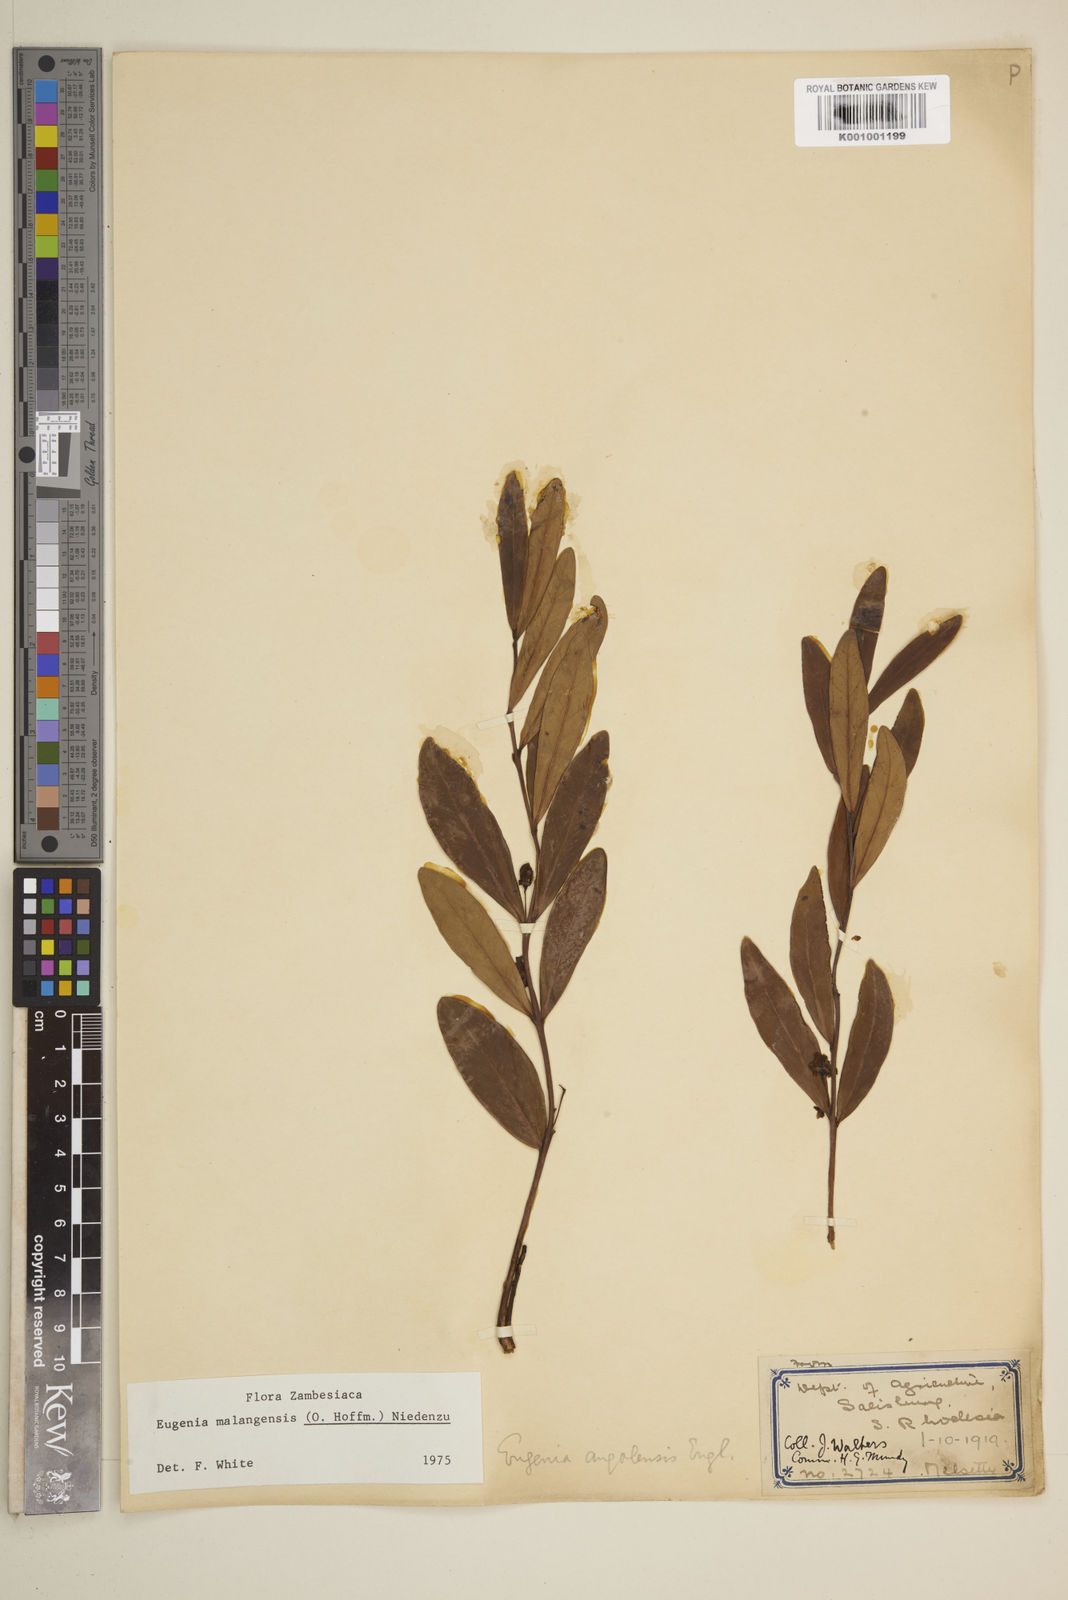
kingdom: Plantae
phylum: Tracheophyta
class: Magnoliopsida
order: Myrtales
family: Myrtaceae
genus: Eugenia
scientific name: Eugenia malangensis
